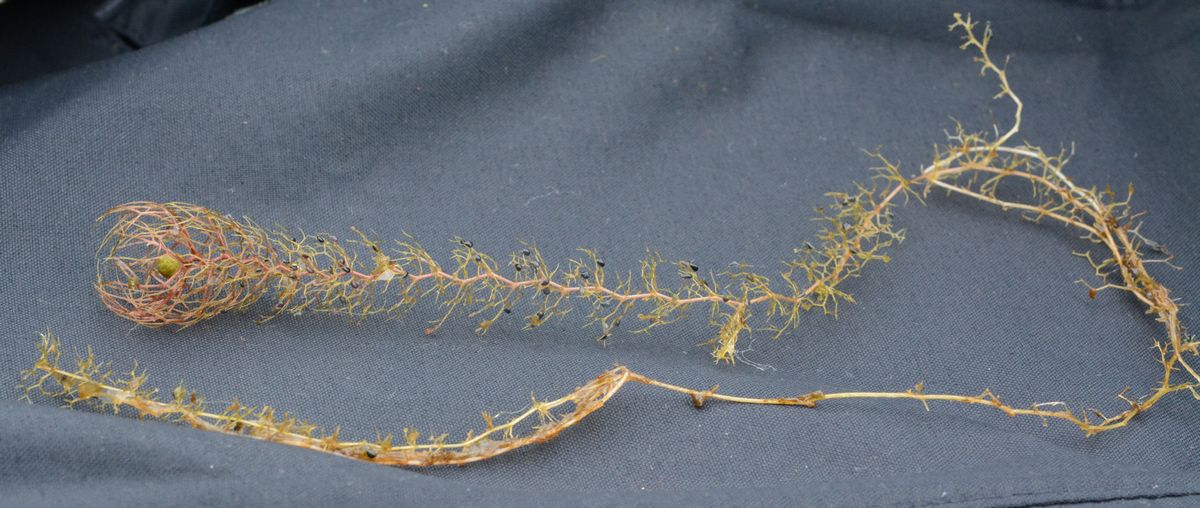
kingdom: Plantae
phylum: Tracheophyta
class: Magnoliopsida
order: Lamiales
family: Lentibulariaceae
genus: Utricularia
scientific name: Utricularia vulgaris
